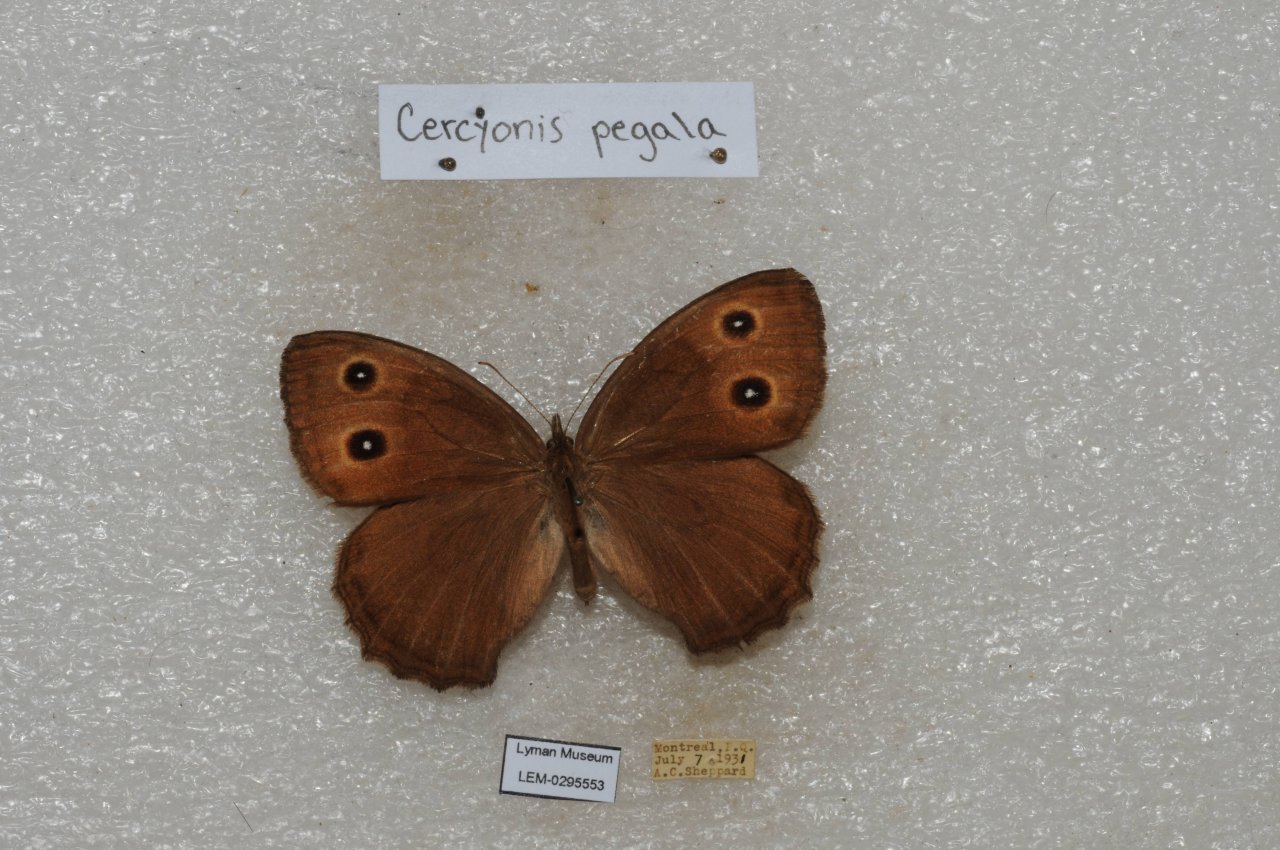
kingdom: Animalia
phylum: Arthropoda
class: Insecta
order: Lepidoptera
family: Nymphalidae
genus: Cercyonis
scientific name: Cercyonis pegala
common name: Common Wood-Nymph
